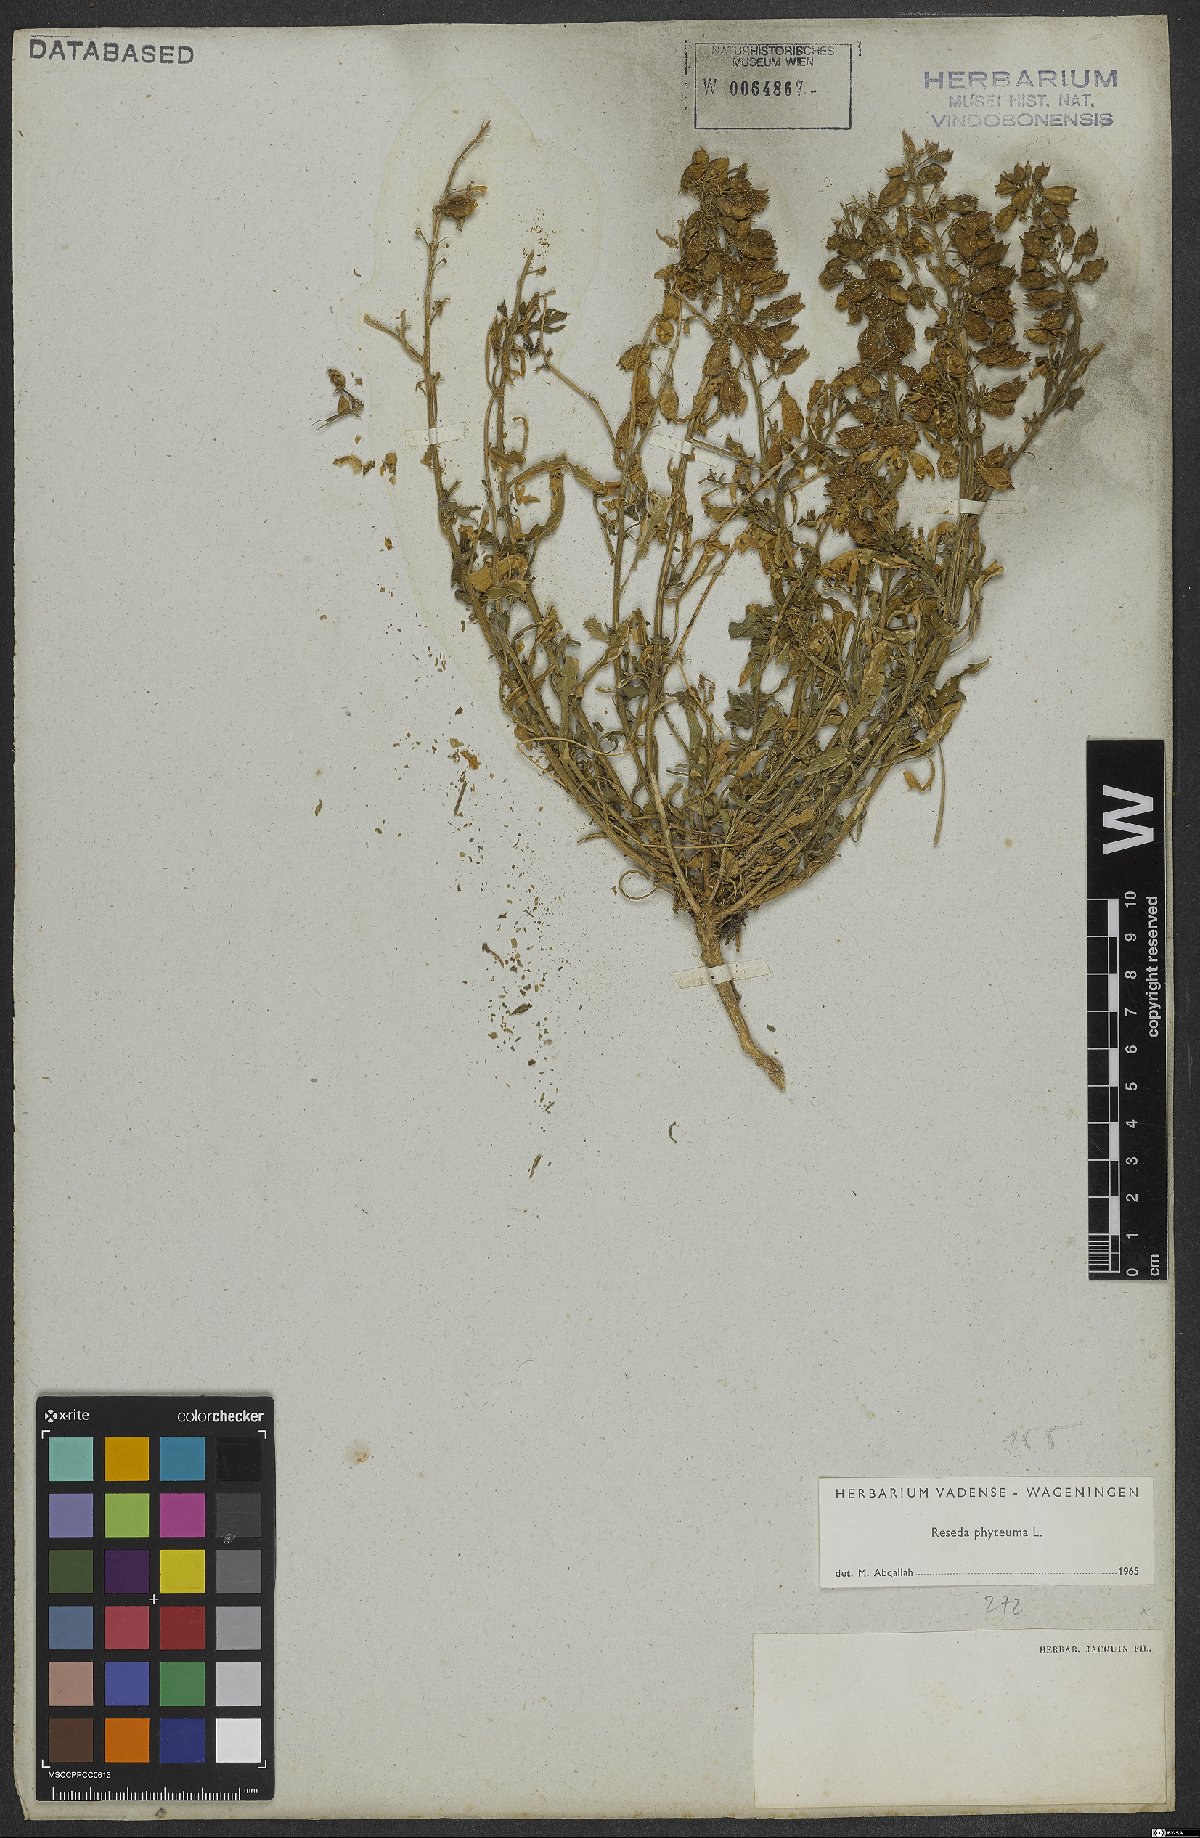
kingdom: Plantae
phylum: Tracheophyta
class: Magnoliopsida
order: Brassicales
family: Resedaceae
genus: Reseda
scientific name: Reseda phyteuma
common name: Corn mignonette
